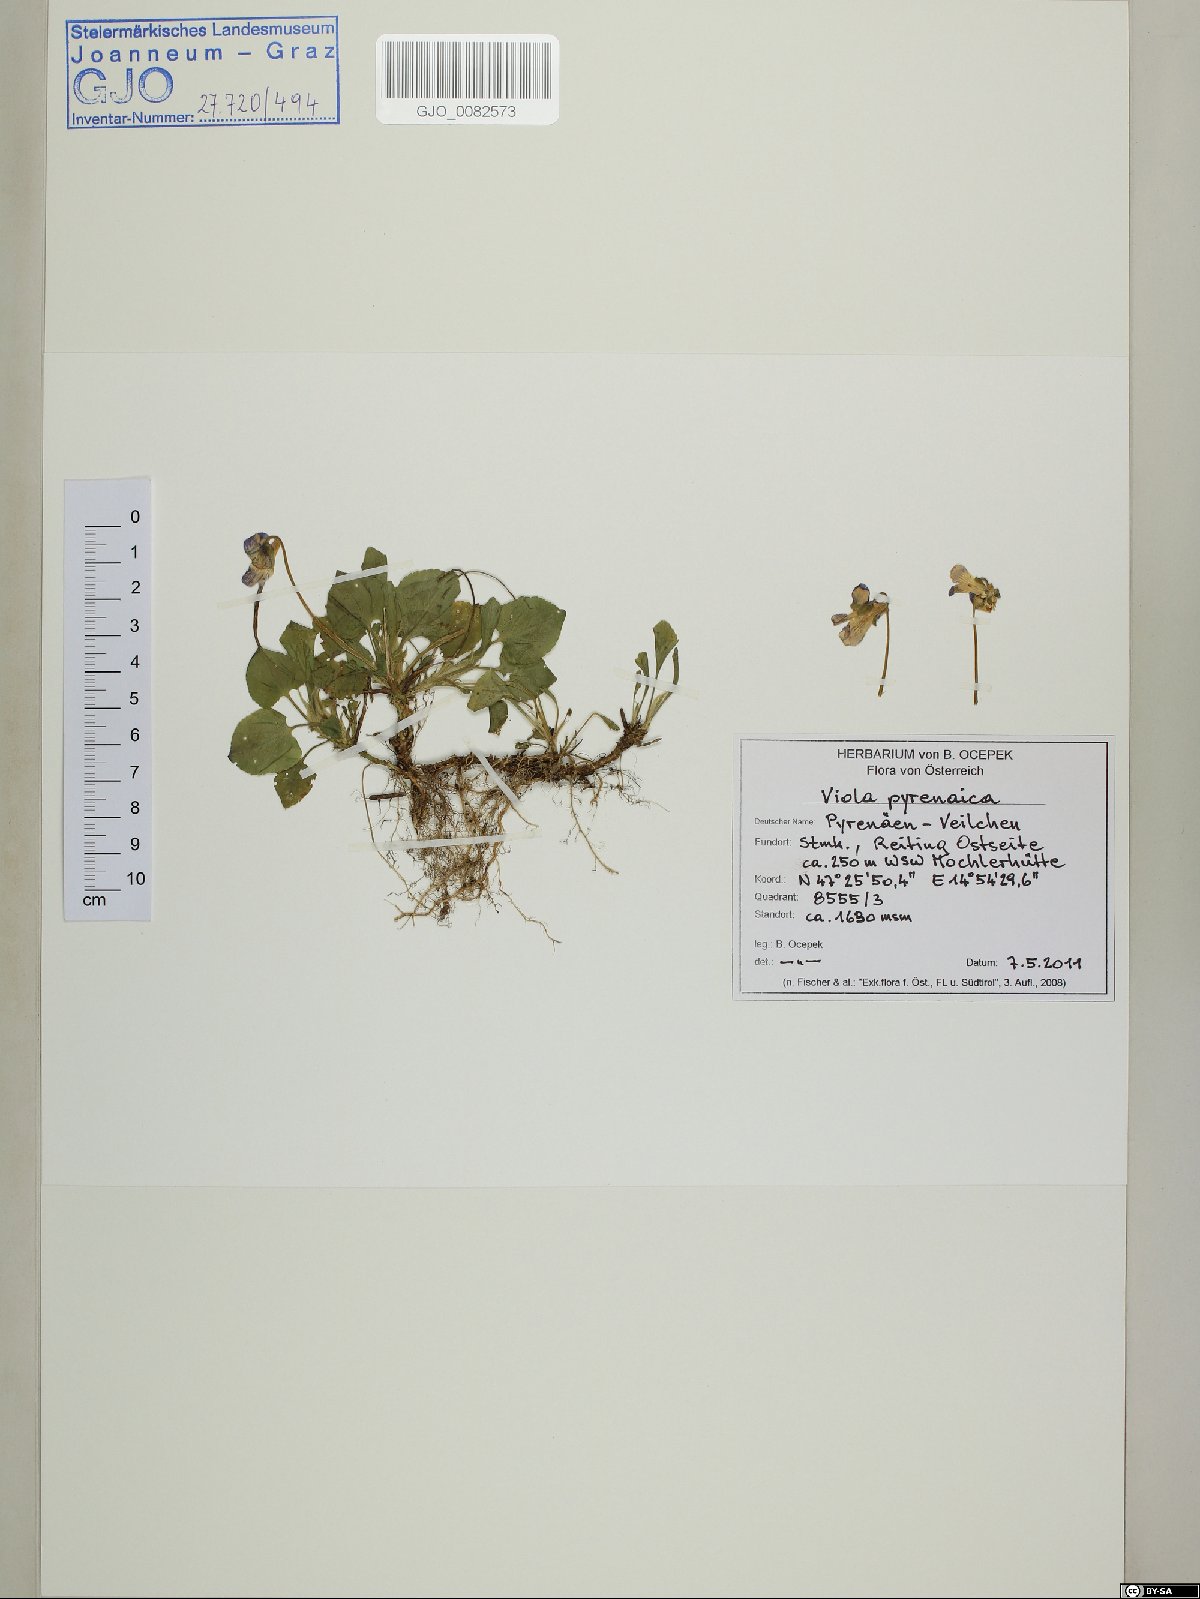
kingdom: Plantae
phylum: Tracheophyta
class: Magnoliopsida
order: Malpighiales
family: Violaceae
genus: Viola
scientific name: Viola pyrenaica
